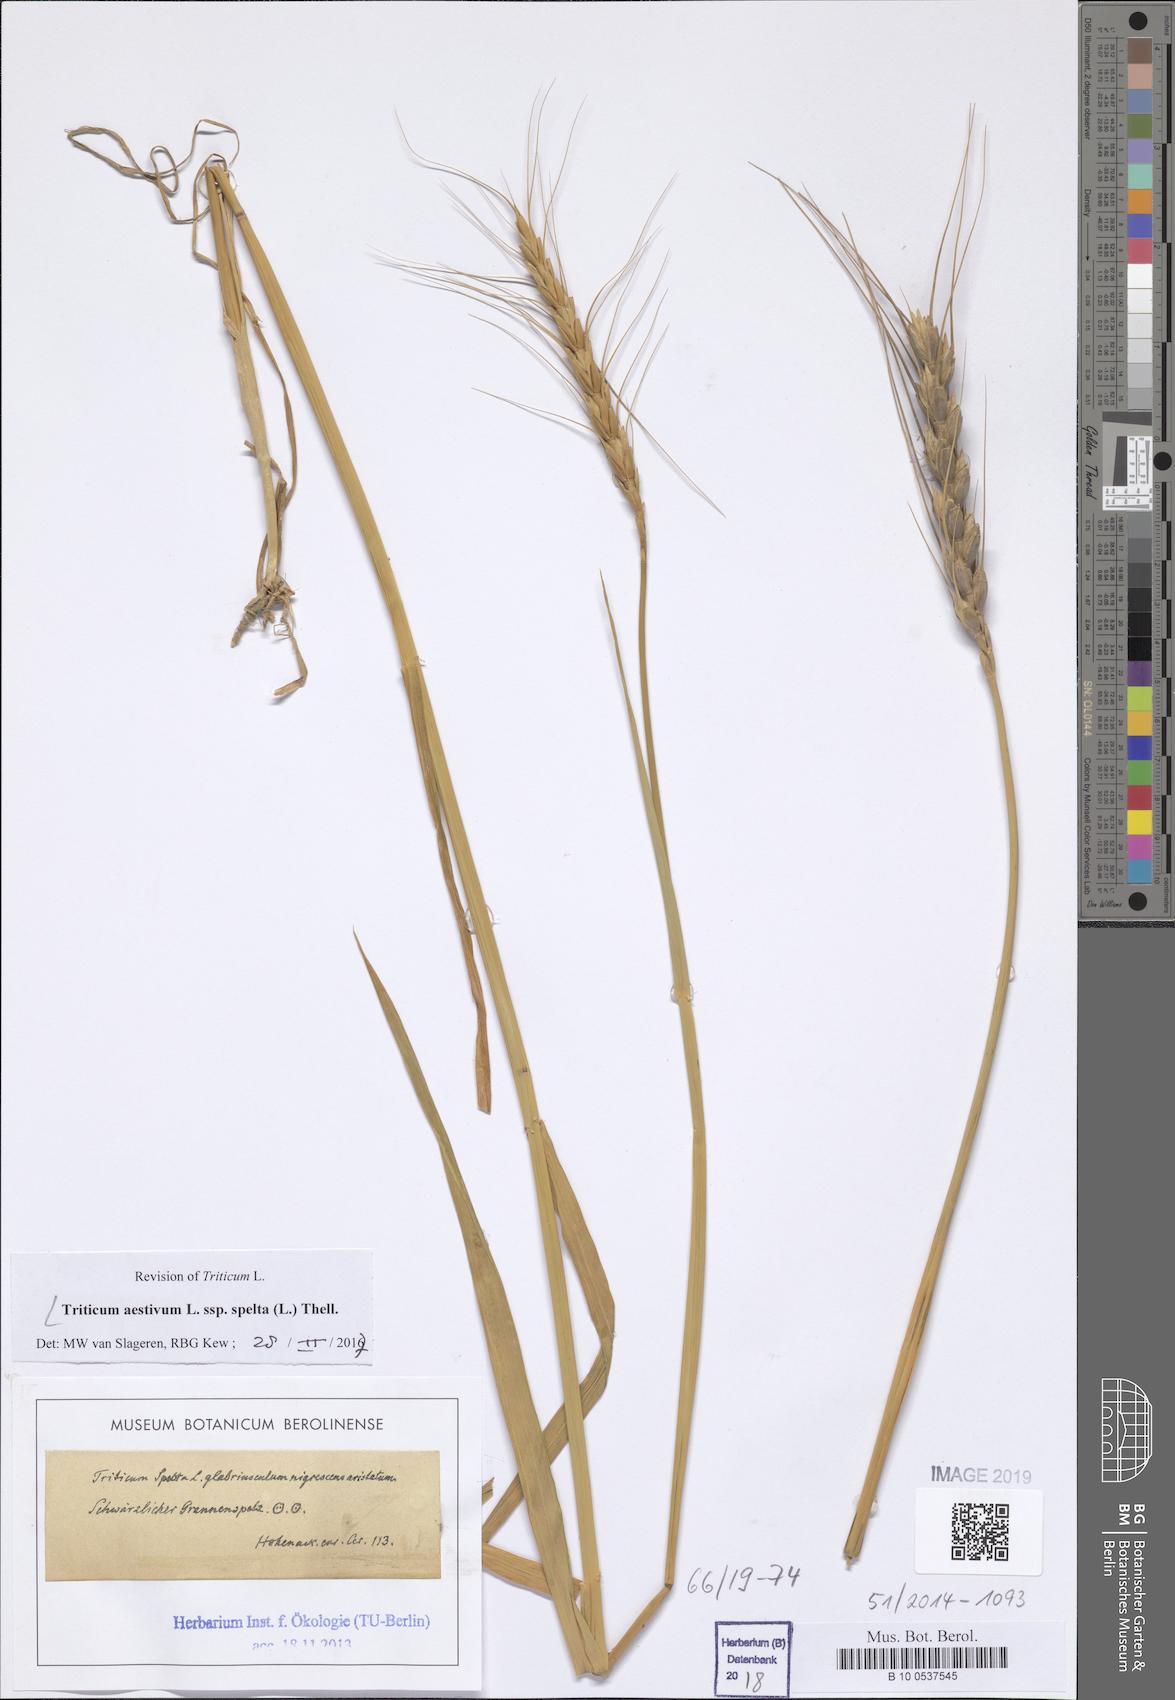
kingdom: Plantae
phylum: Tracheophyta
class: Liliopsida
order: Poales
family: Poaceae
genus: Triticum
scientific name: Triticum aestivum
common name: Common wheat
